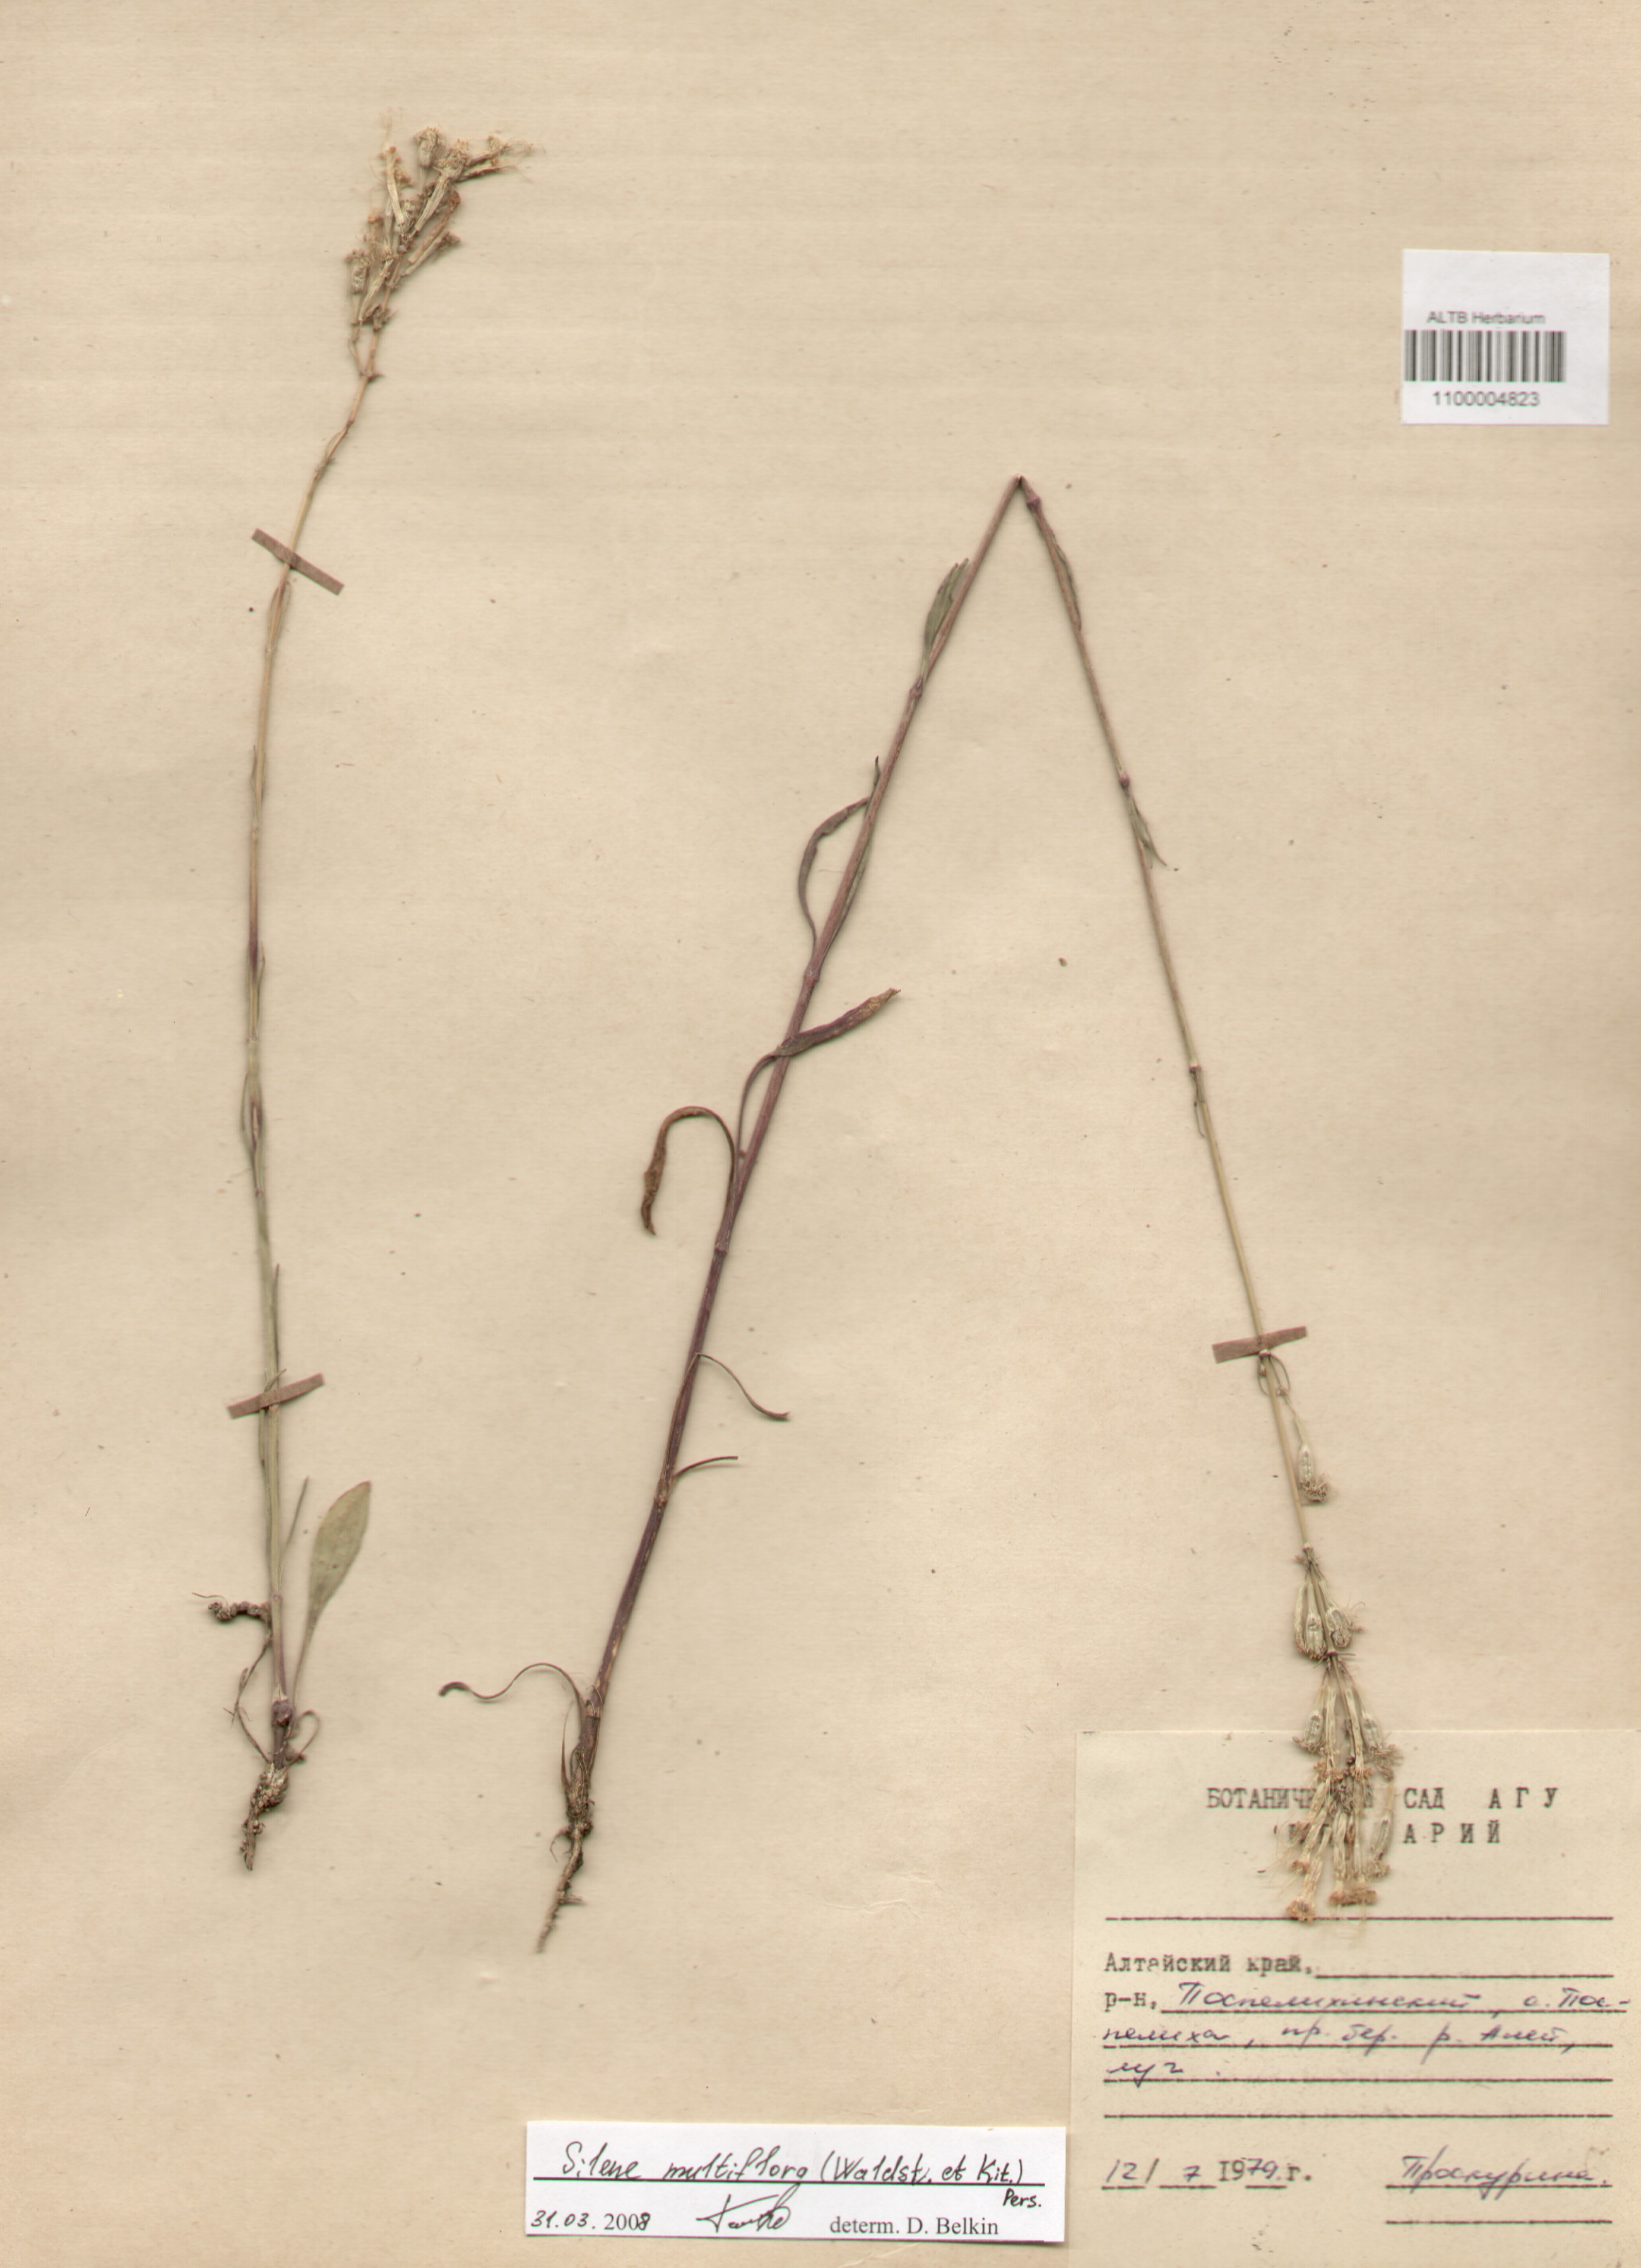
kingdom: Plantae
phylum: Tracheophyta
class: Magnoliopsida
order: Caryophyllales
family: Caryophyllaceae
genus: Silene
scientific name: Silene multiflora
